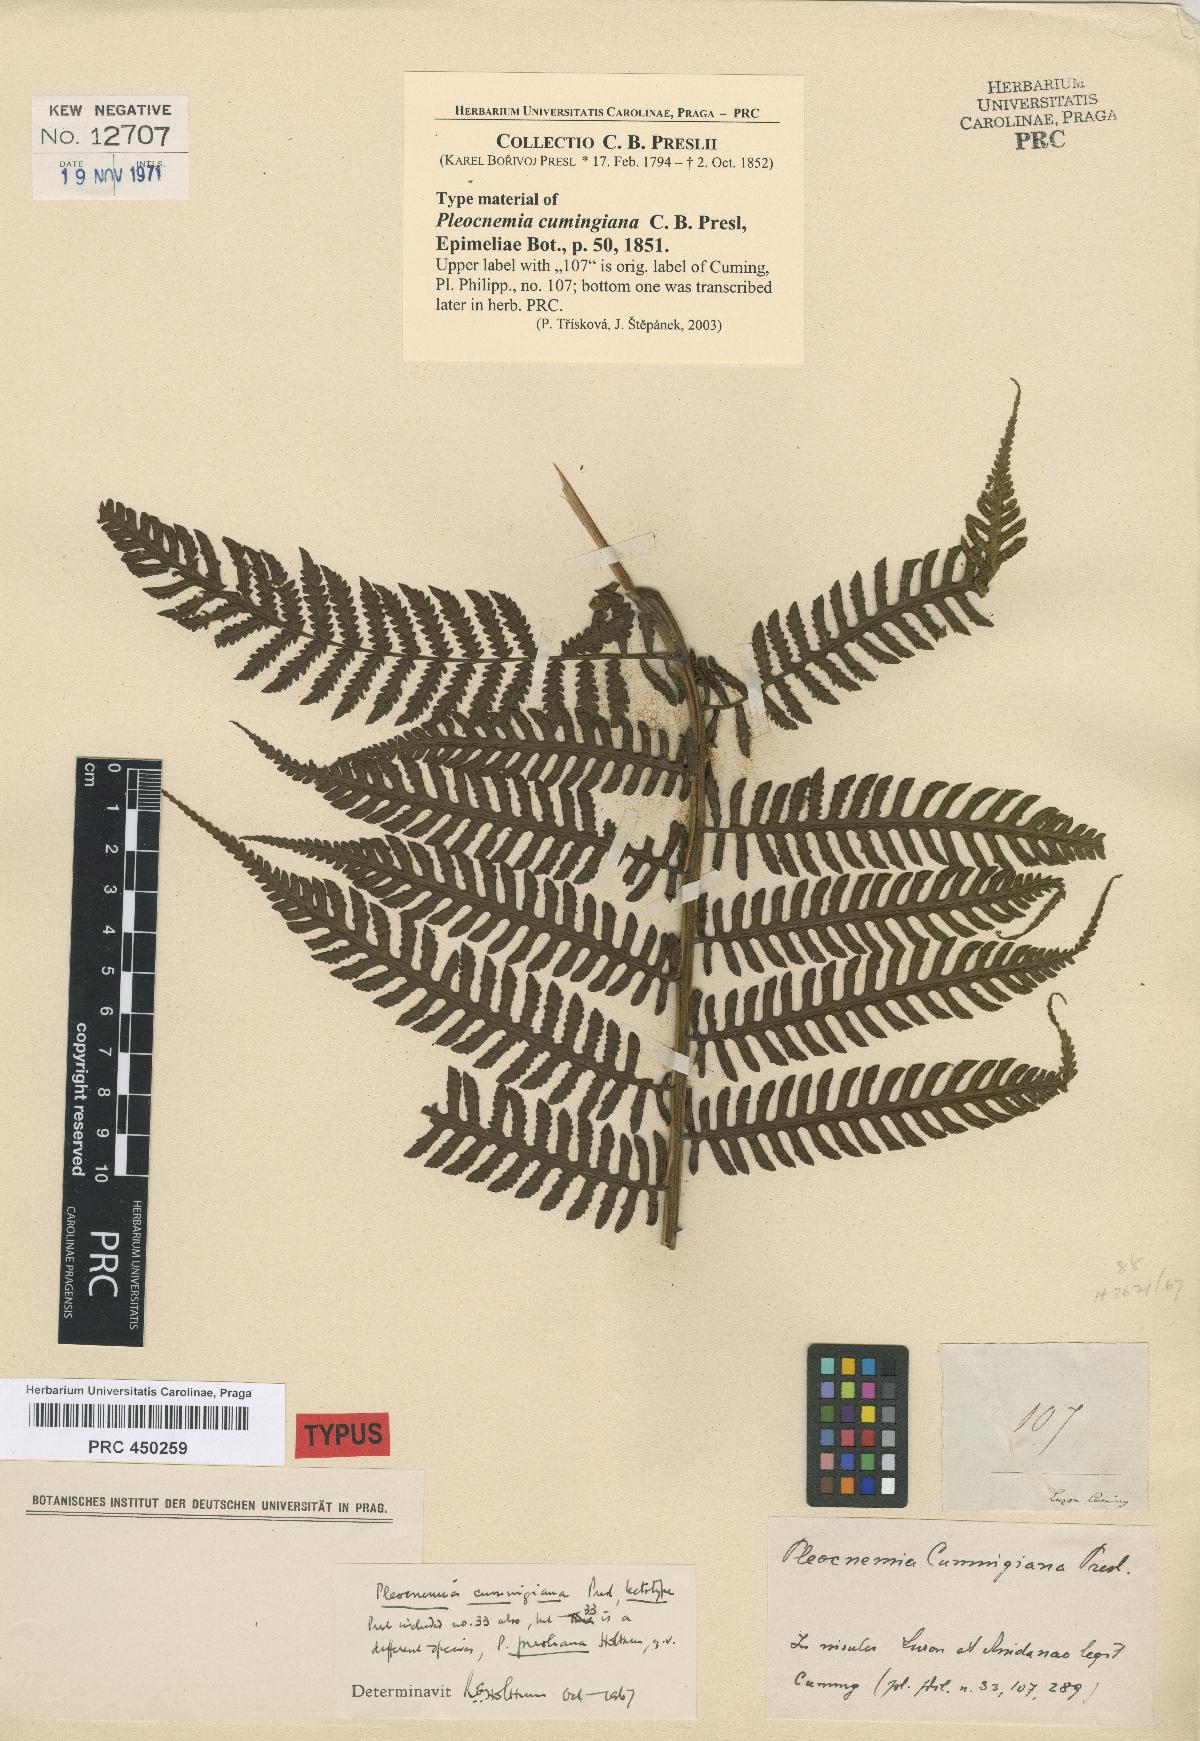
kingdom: Plantae
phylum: Tracheophyta
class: Polypodiopsida
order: Polypodiales
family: Dryopteridaceae
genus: Pleocnemia
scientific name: Pleocnemia cumingiana
